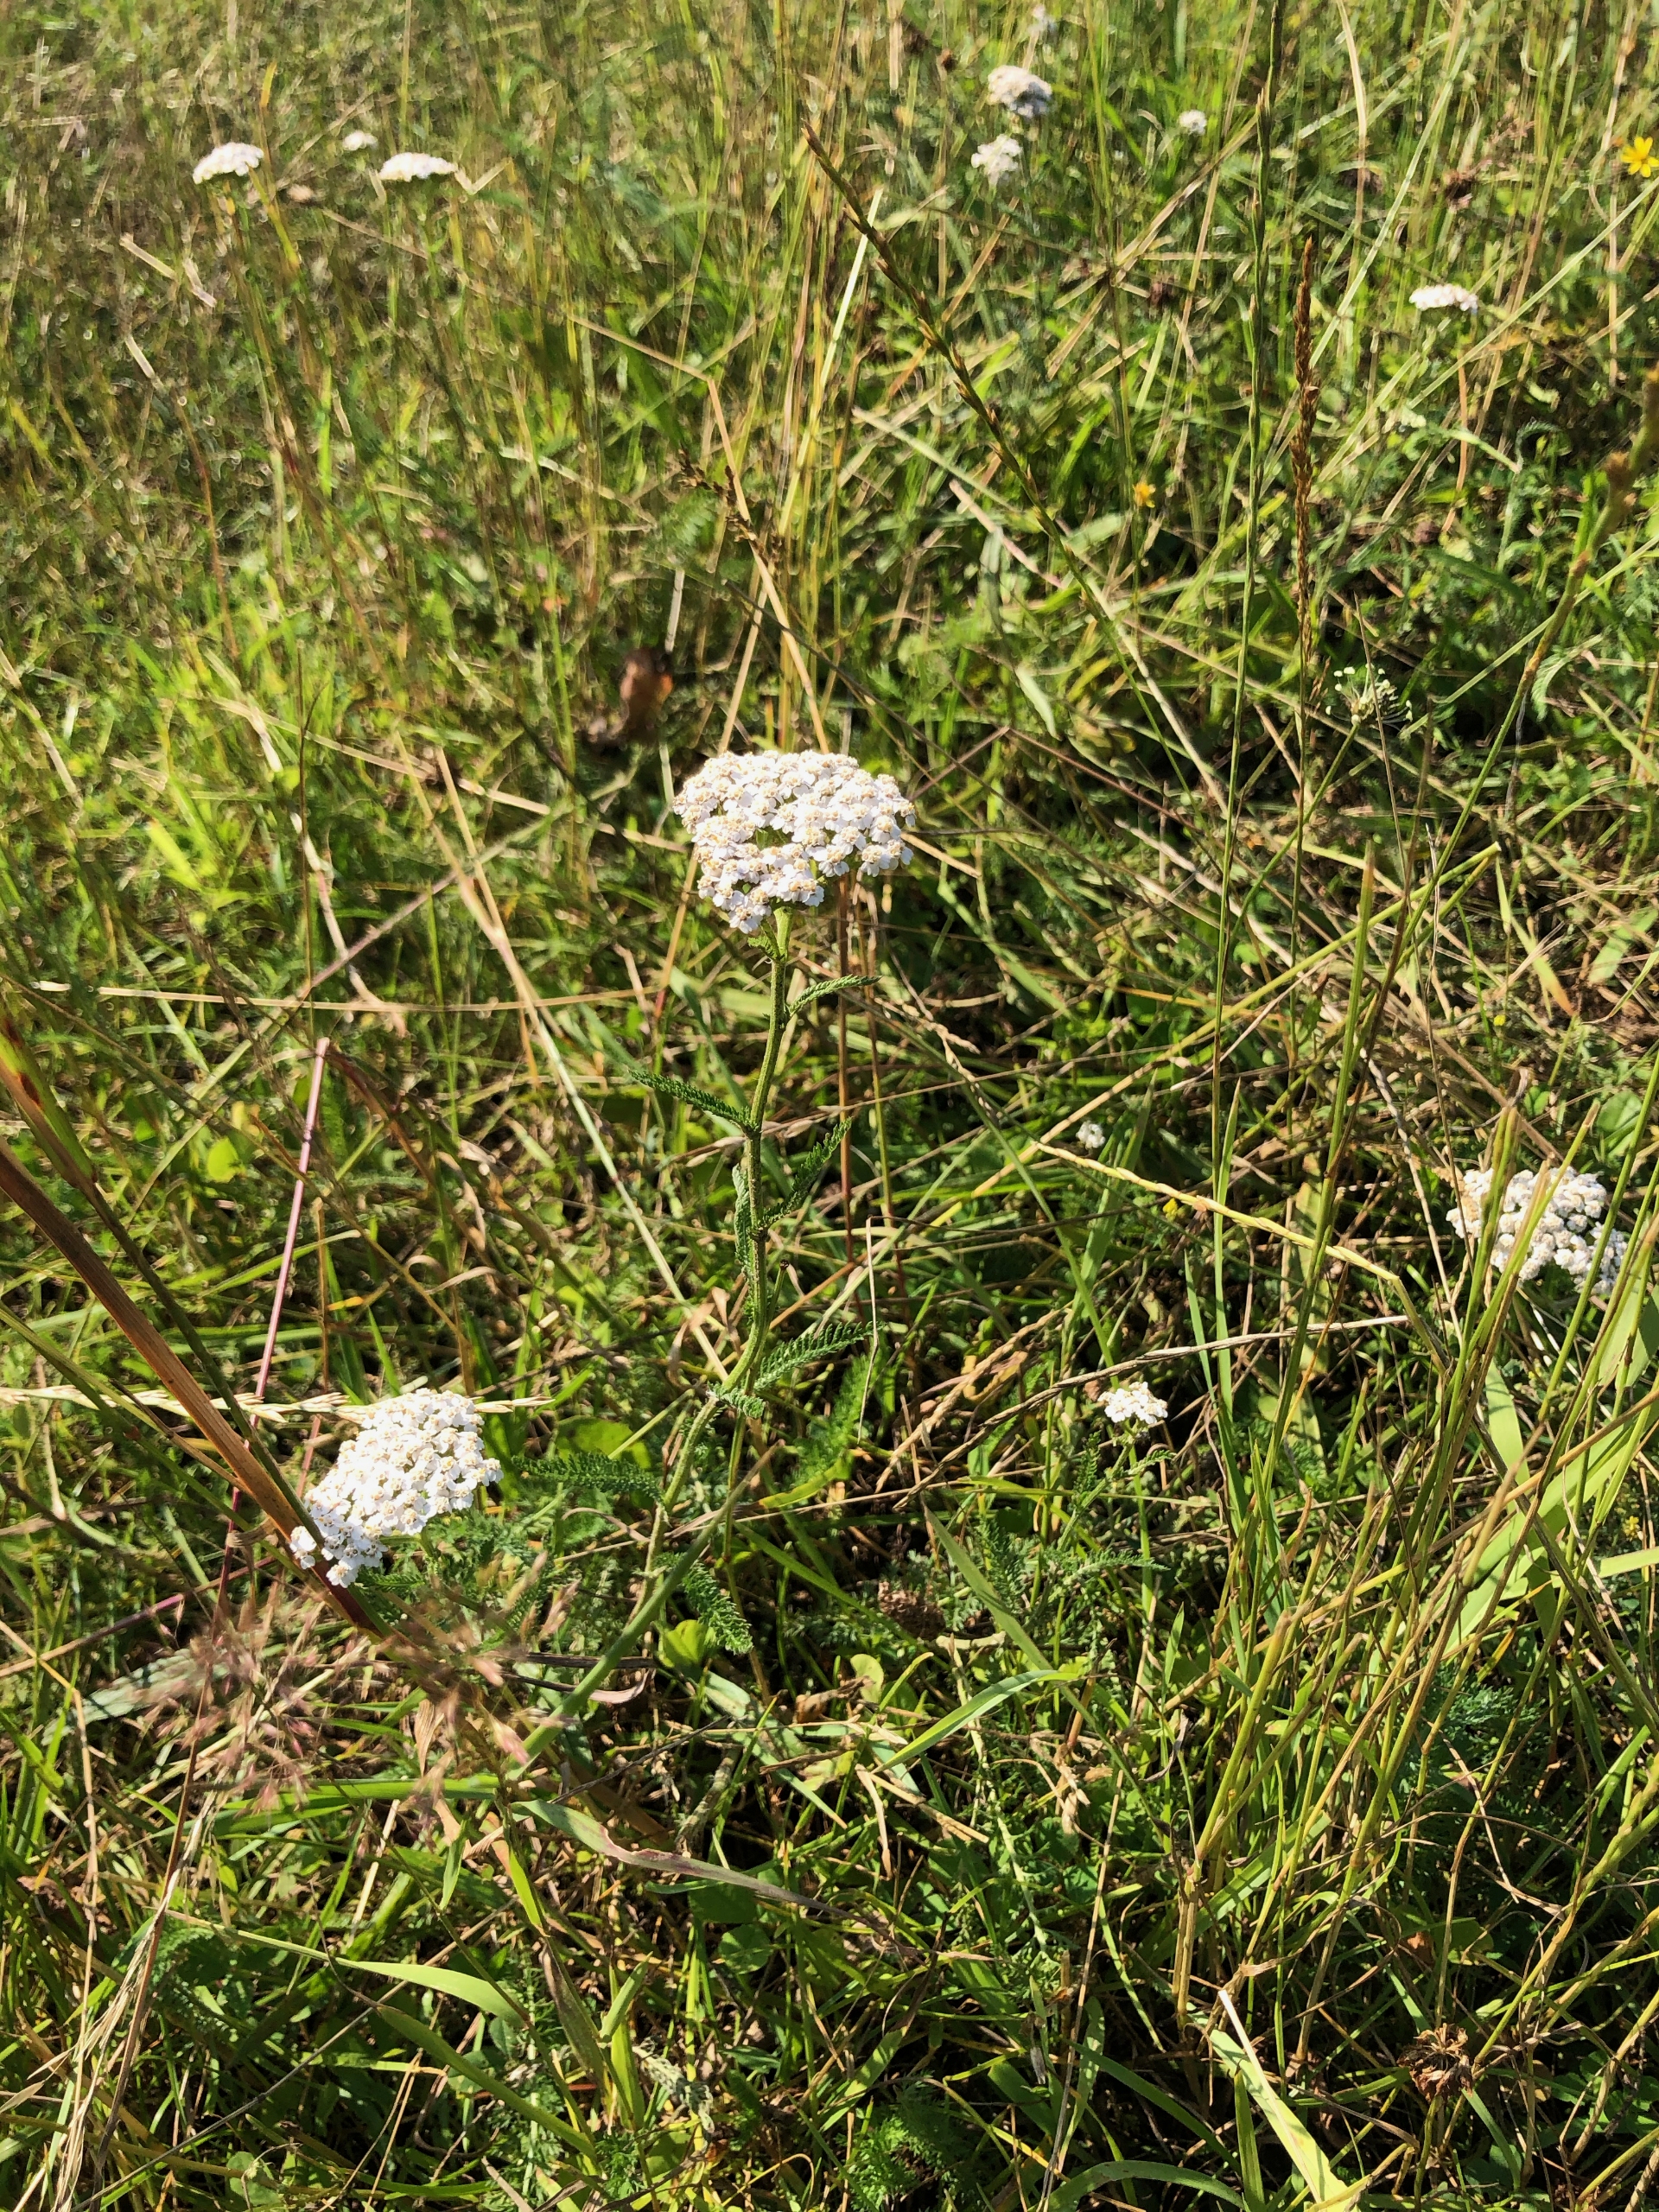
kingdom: Plantae
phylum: Tracheophyta
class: Magnoliopsida
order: Asterales
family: Asteraceae
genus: Achillea
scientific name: Achillea millefolium
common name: Almindelig røllike
